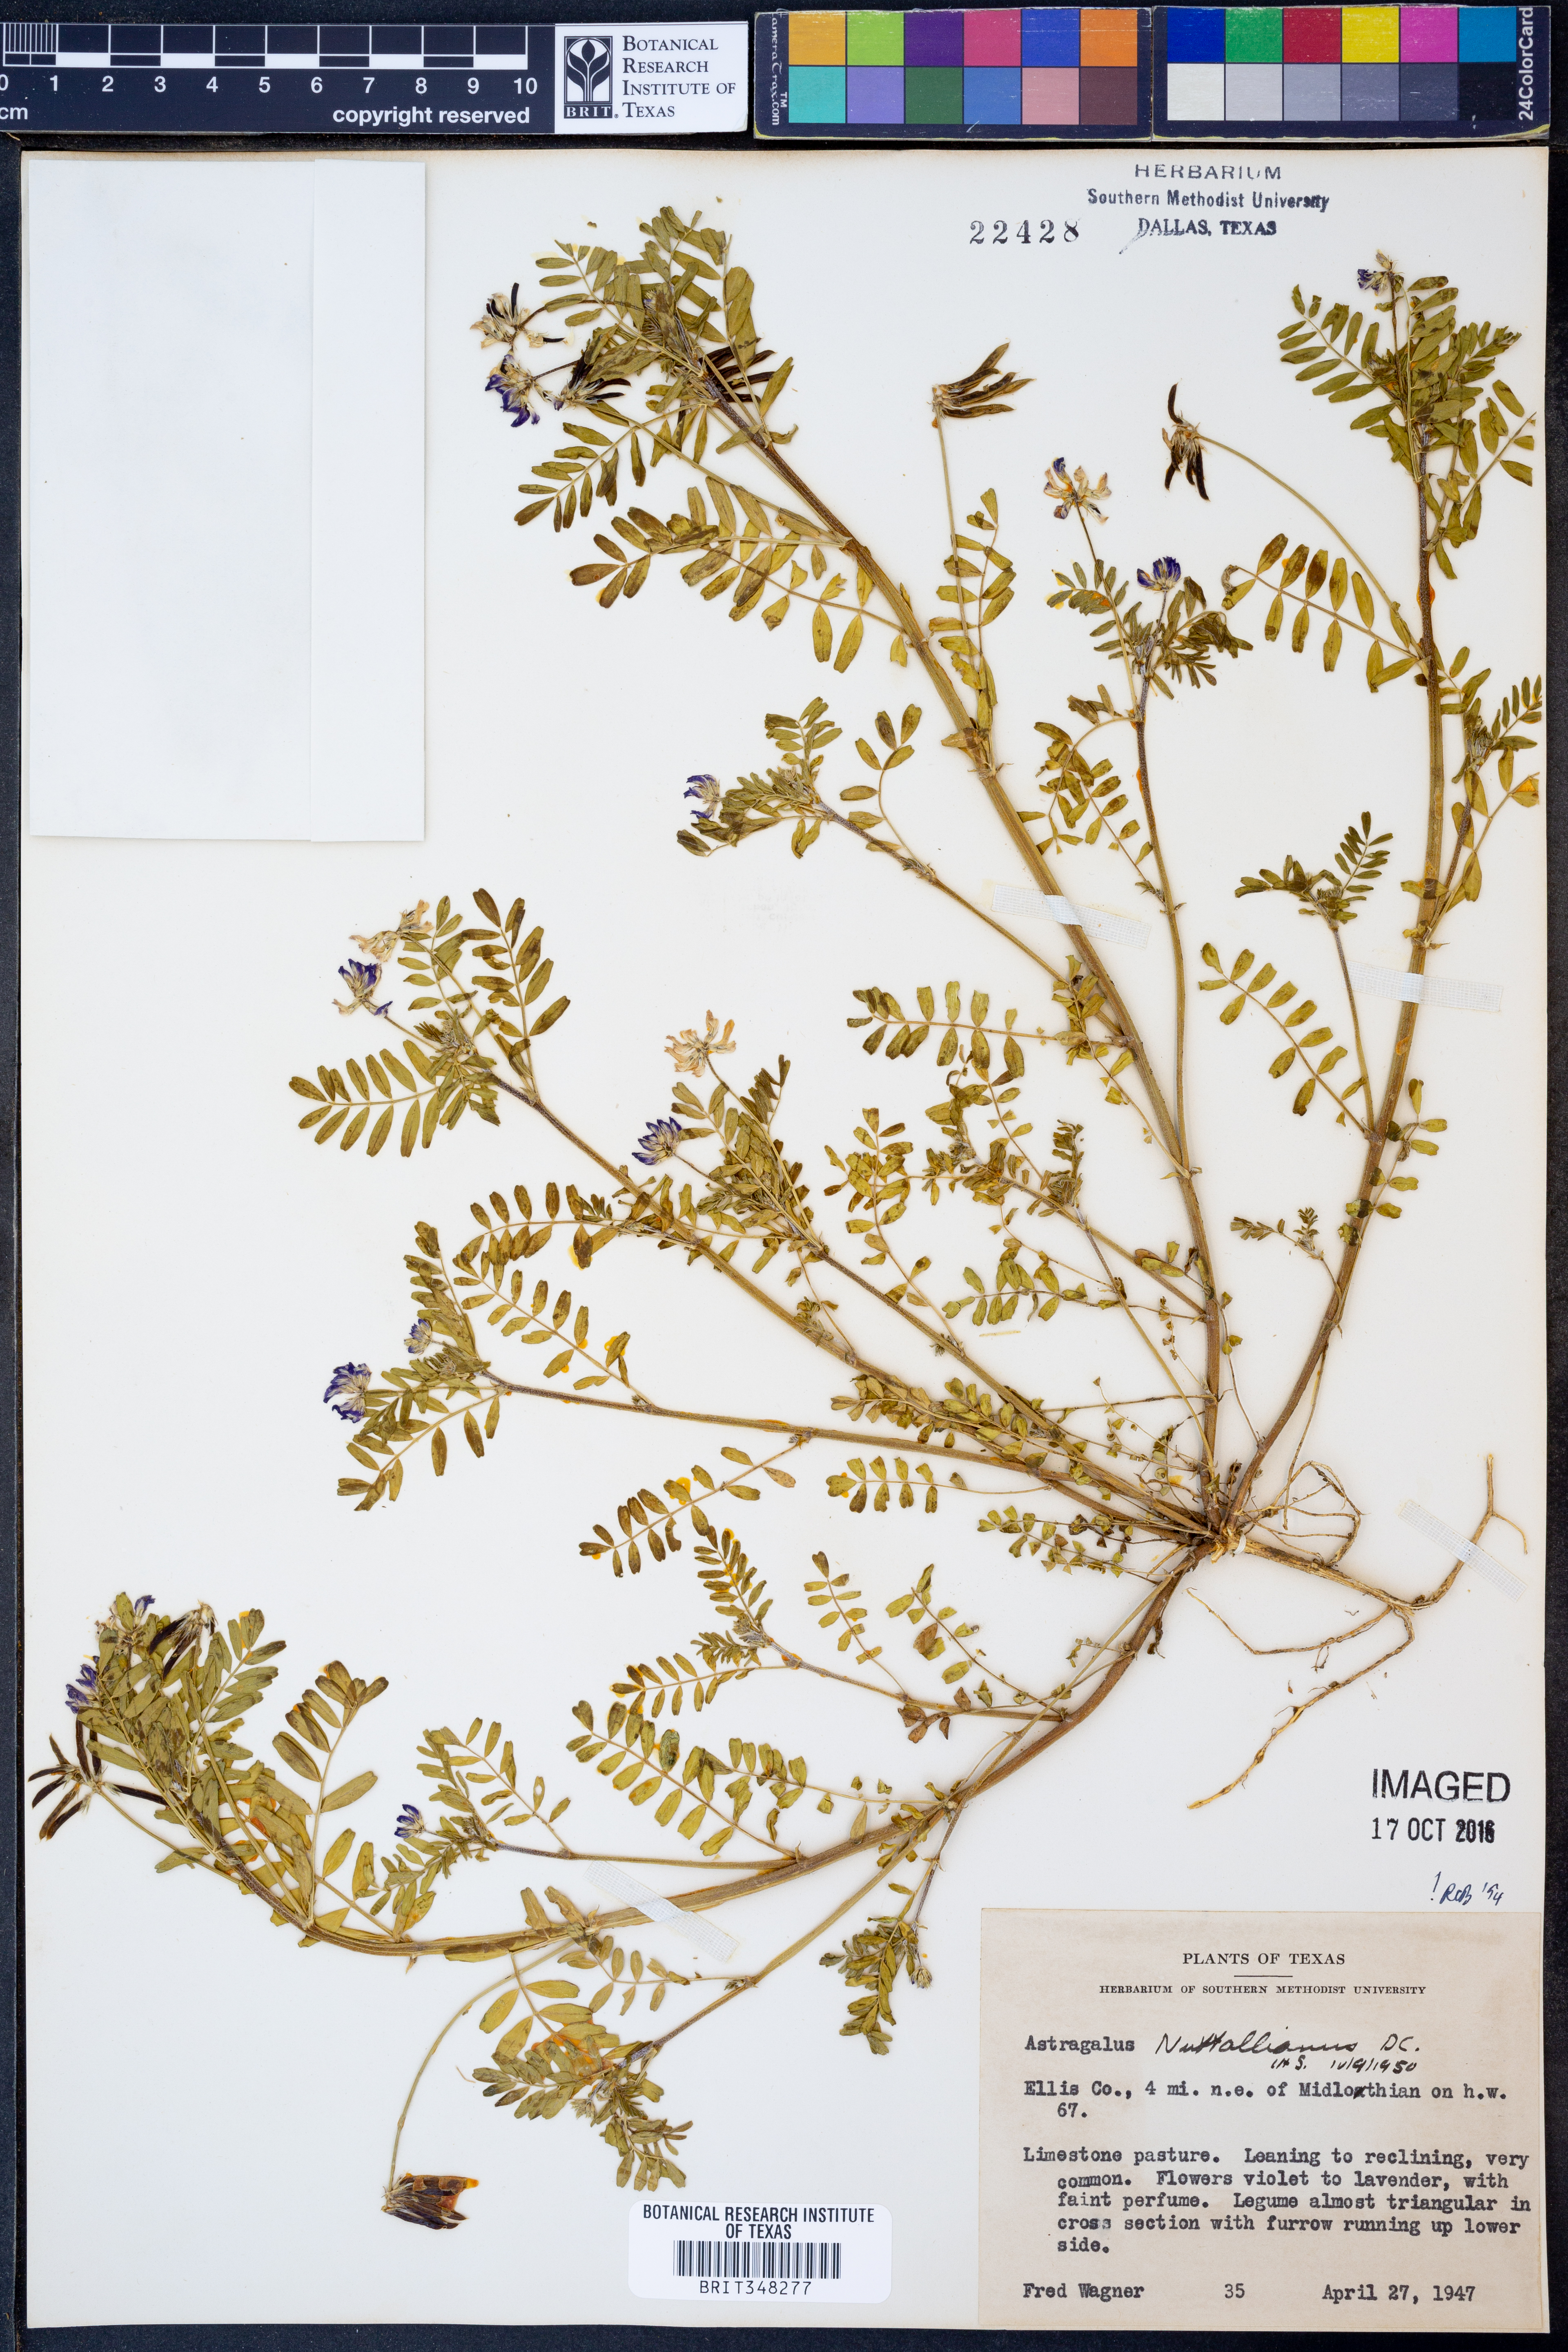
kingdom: Plantae
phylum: Tracheophyta
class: Magnoliopsida
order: Fabales
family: Fabaceae
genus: Astragalus
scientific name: Astragalus nuttallianus
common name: Smallflowered milkvetch
